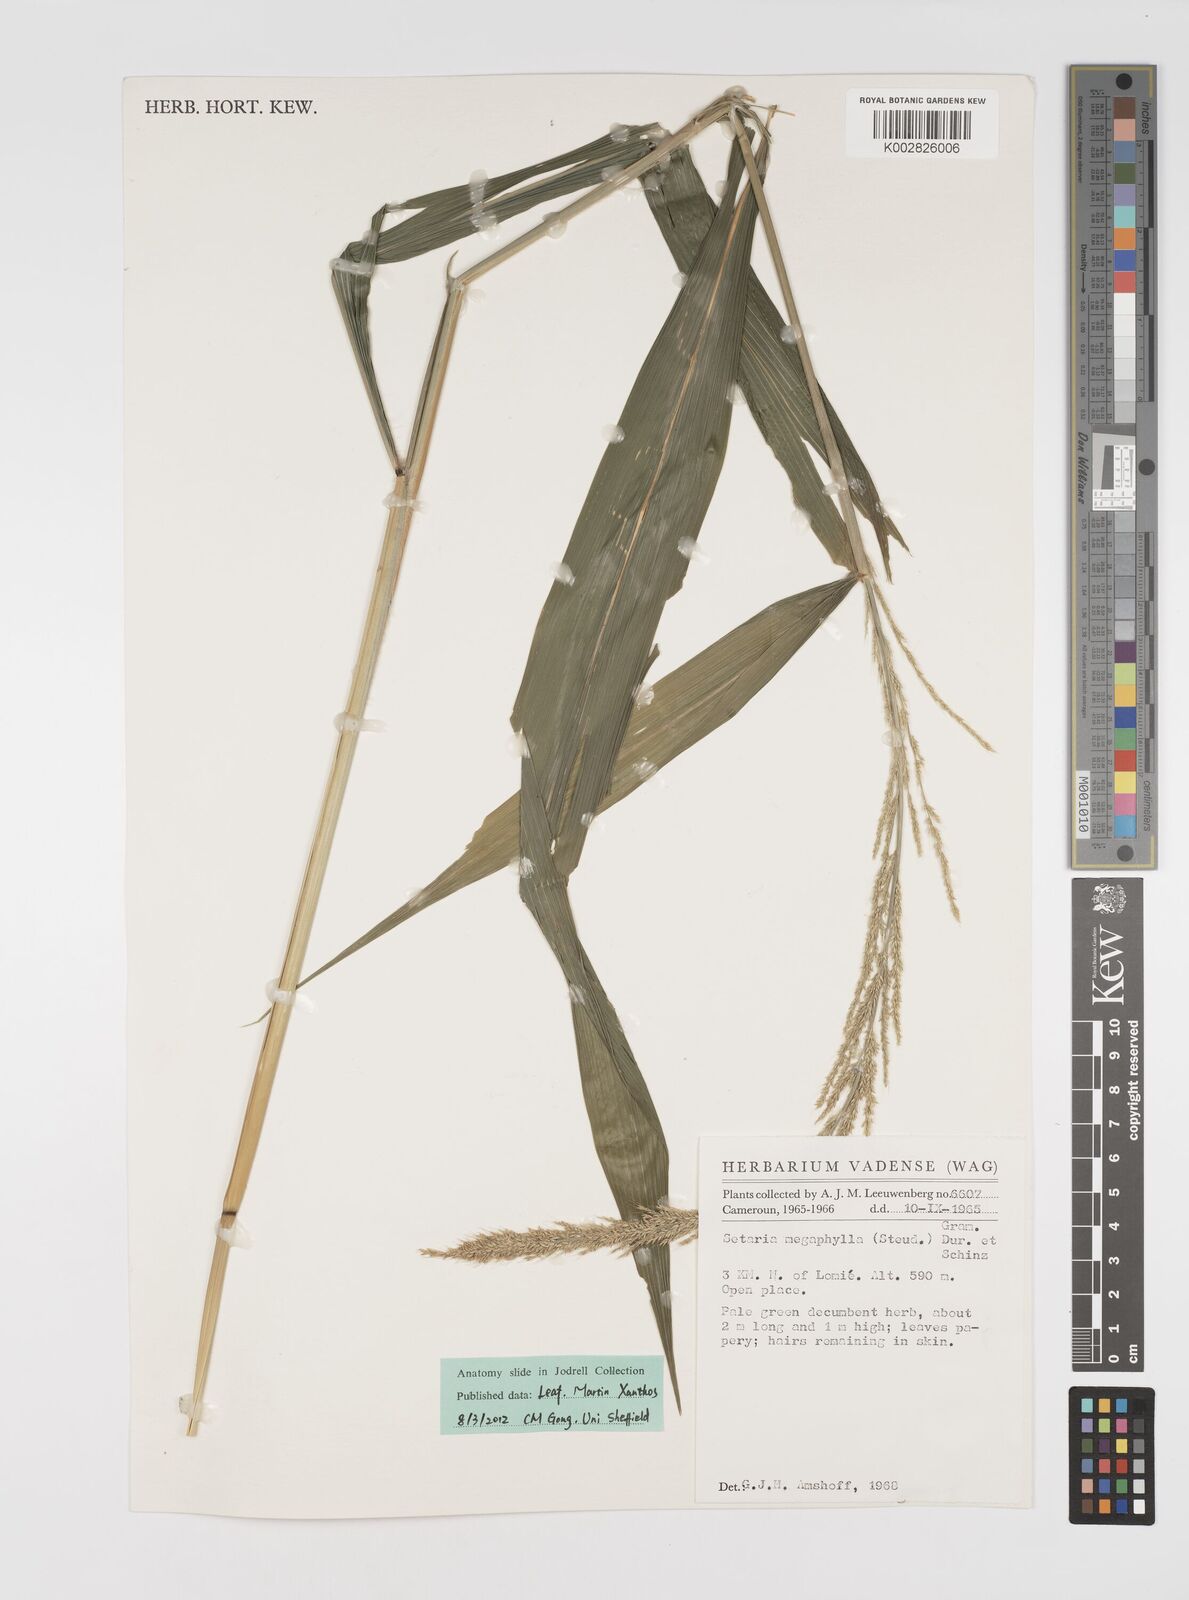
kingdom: Plantae
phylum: Tracheophyta
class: Liliopsida
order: Poales
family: Poaceae
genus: Setaria
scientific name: Setaria megaphylla
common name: Bigleaf bristlegrass
